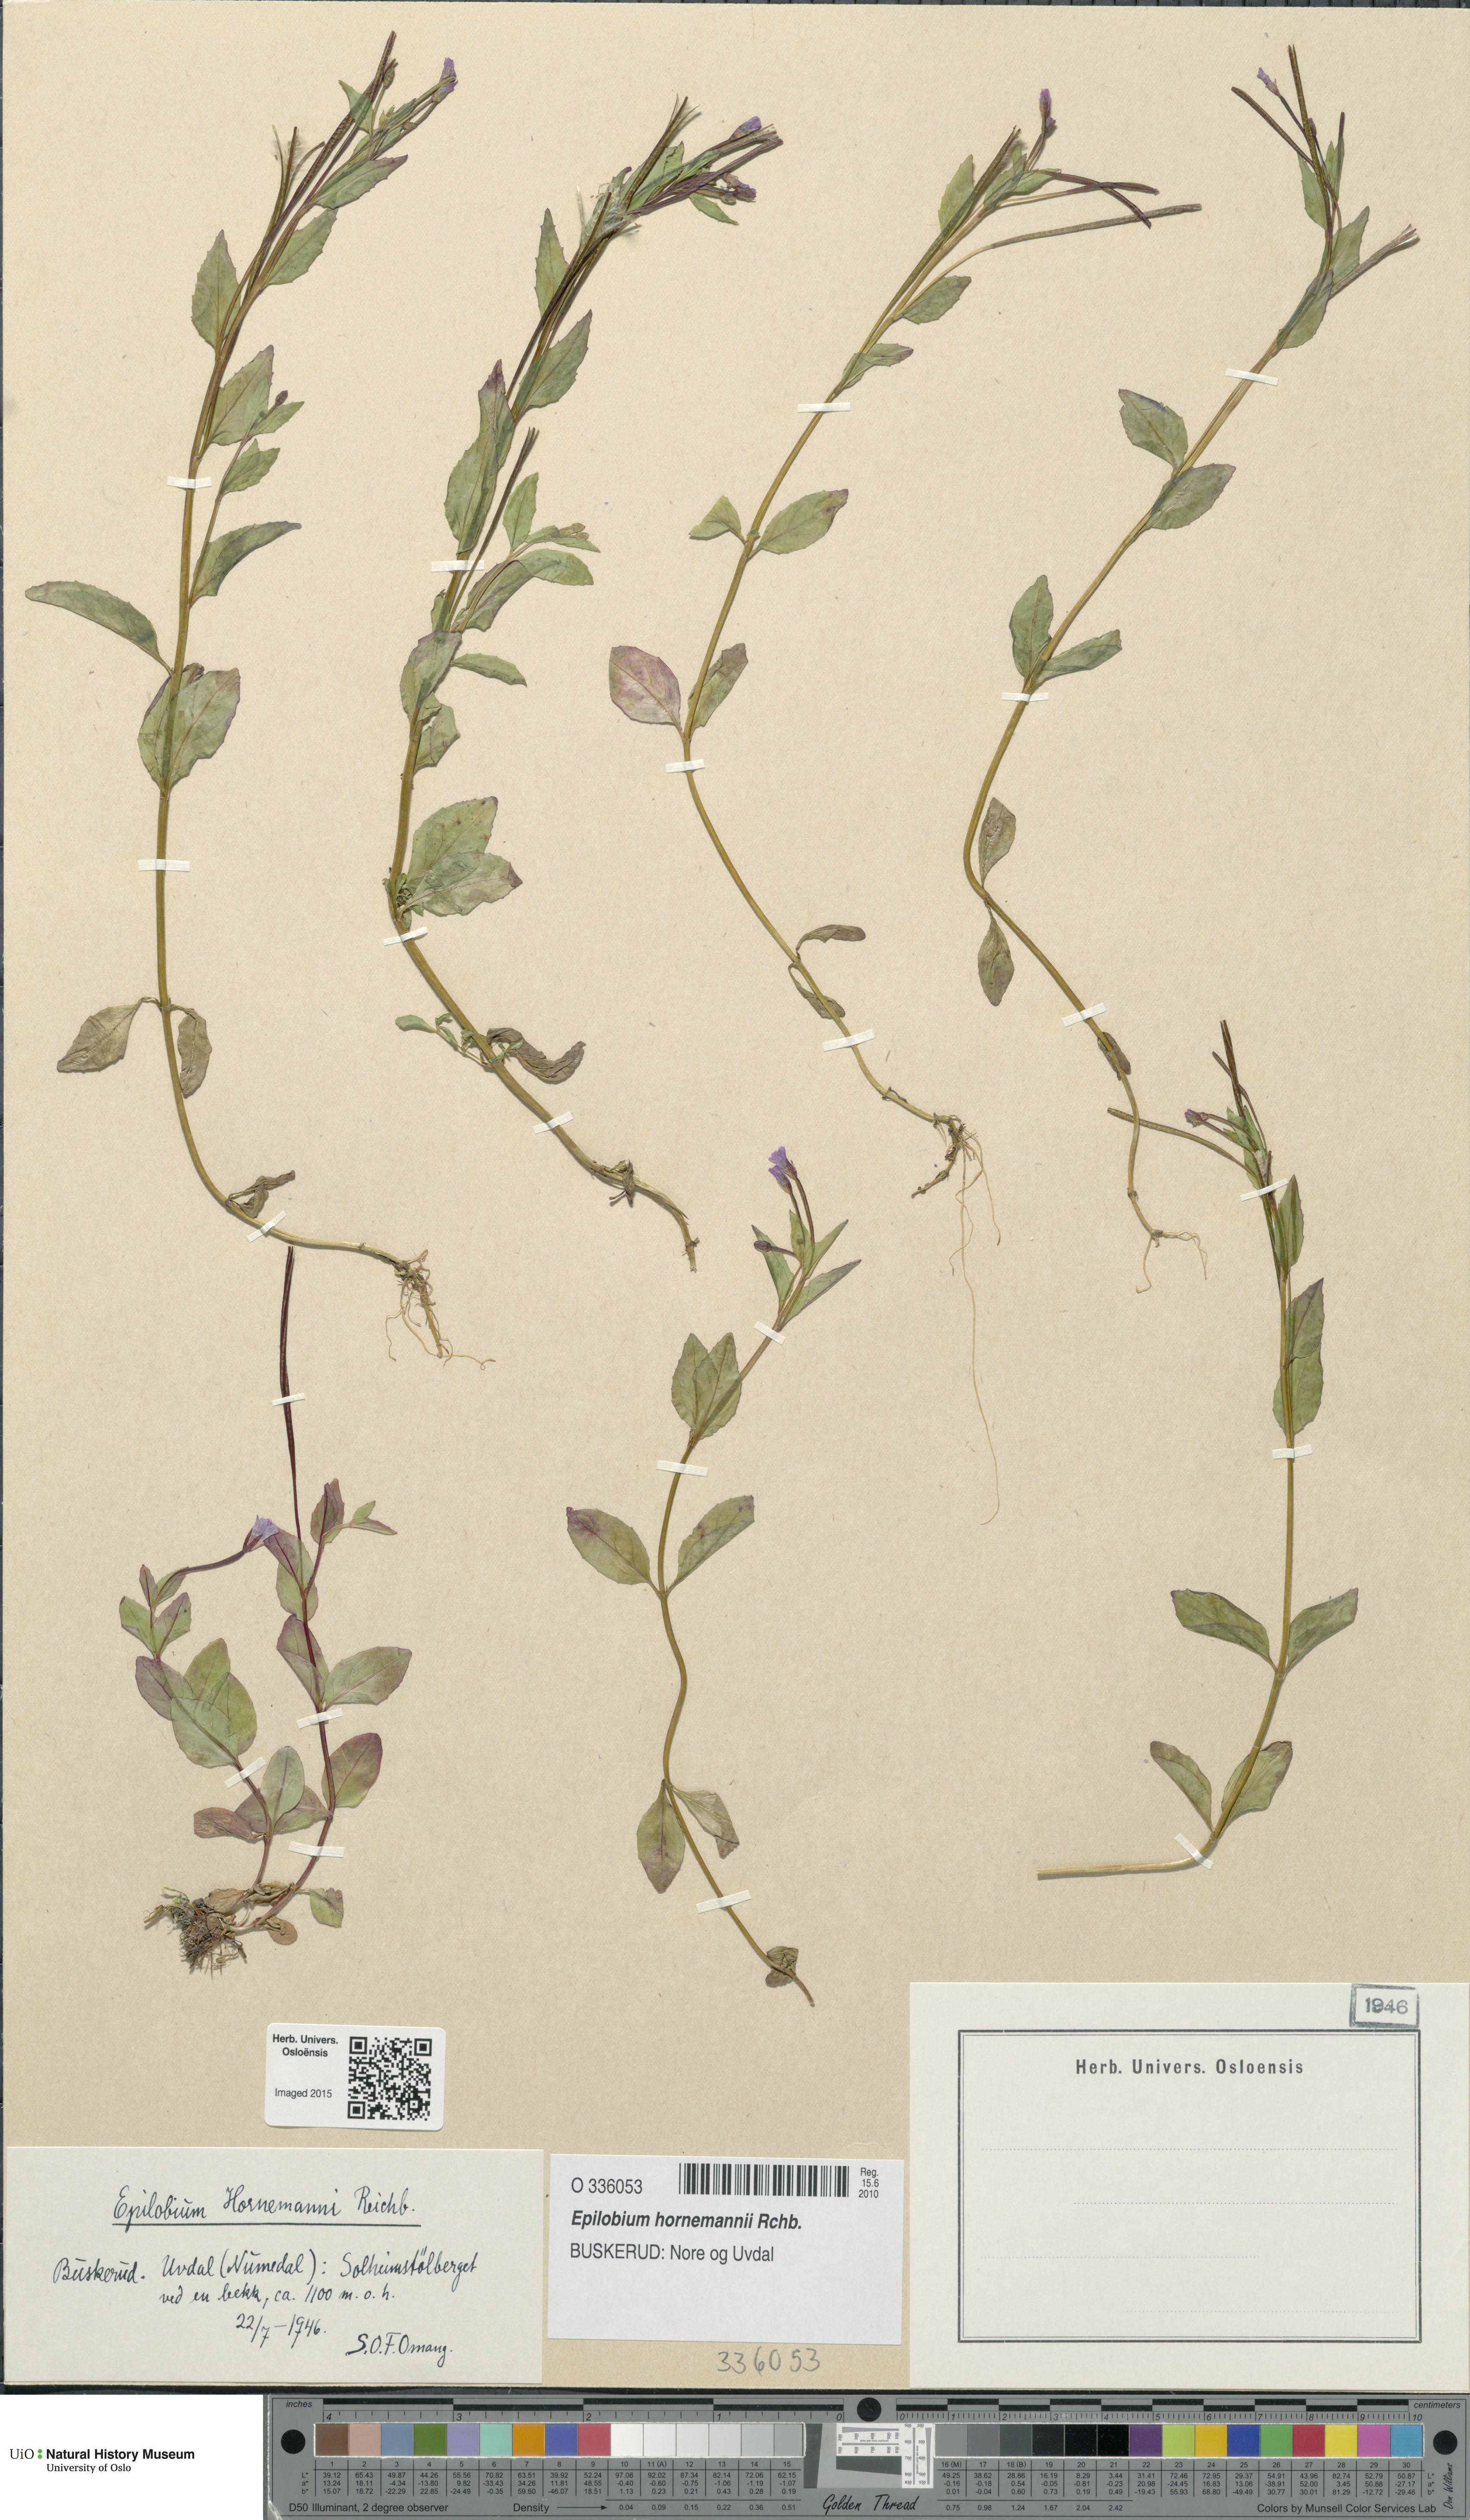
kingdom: Plantae
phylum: Tracheophyta
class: Magnoliopsida
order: Myrtales
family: Onagraceae
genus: Epilobium
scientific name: Epilobium hornemannii
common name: Hornemann's willowherb
